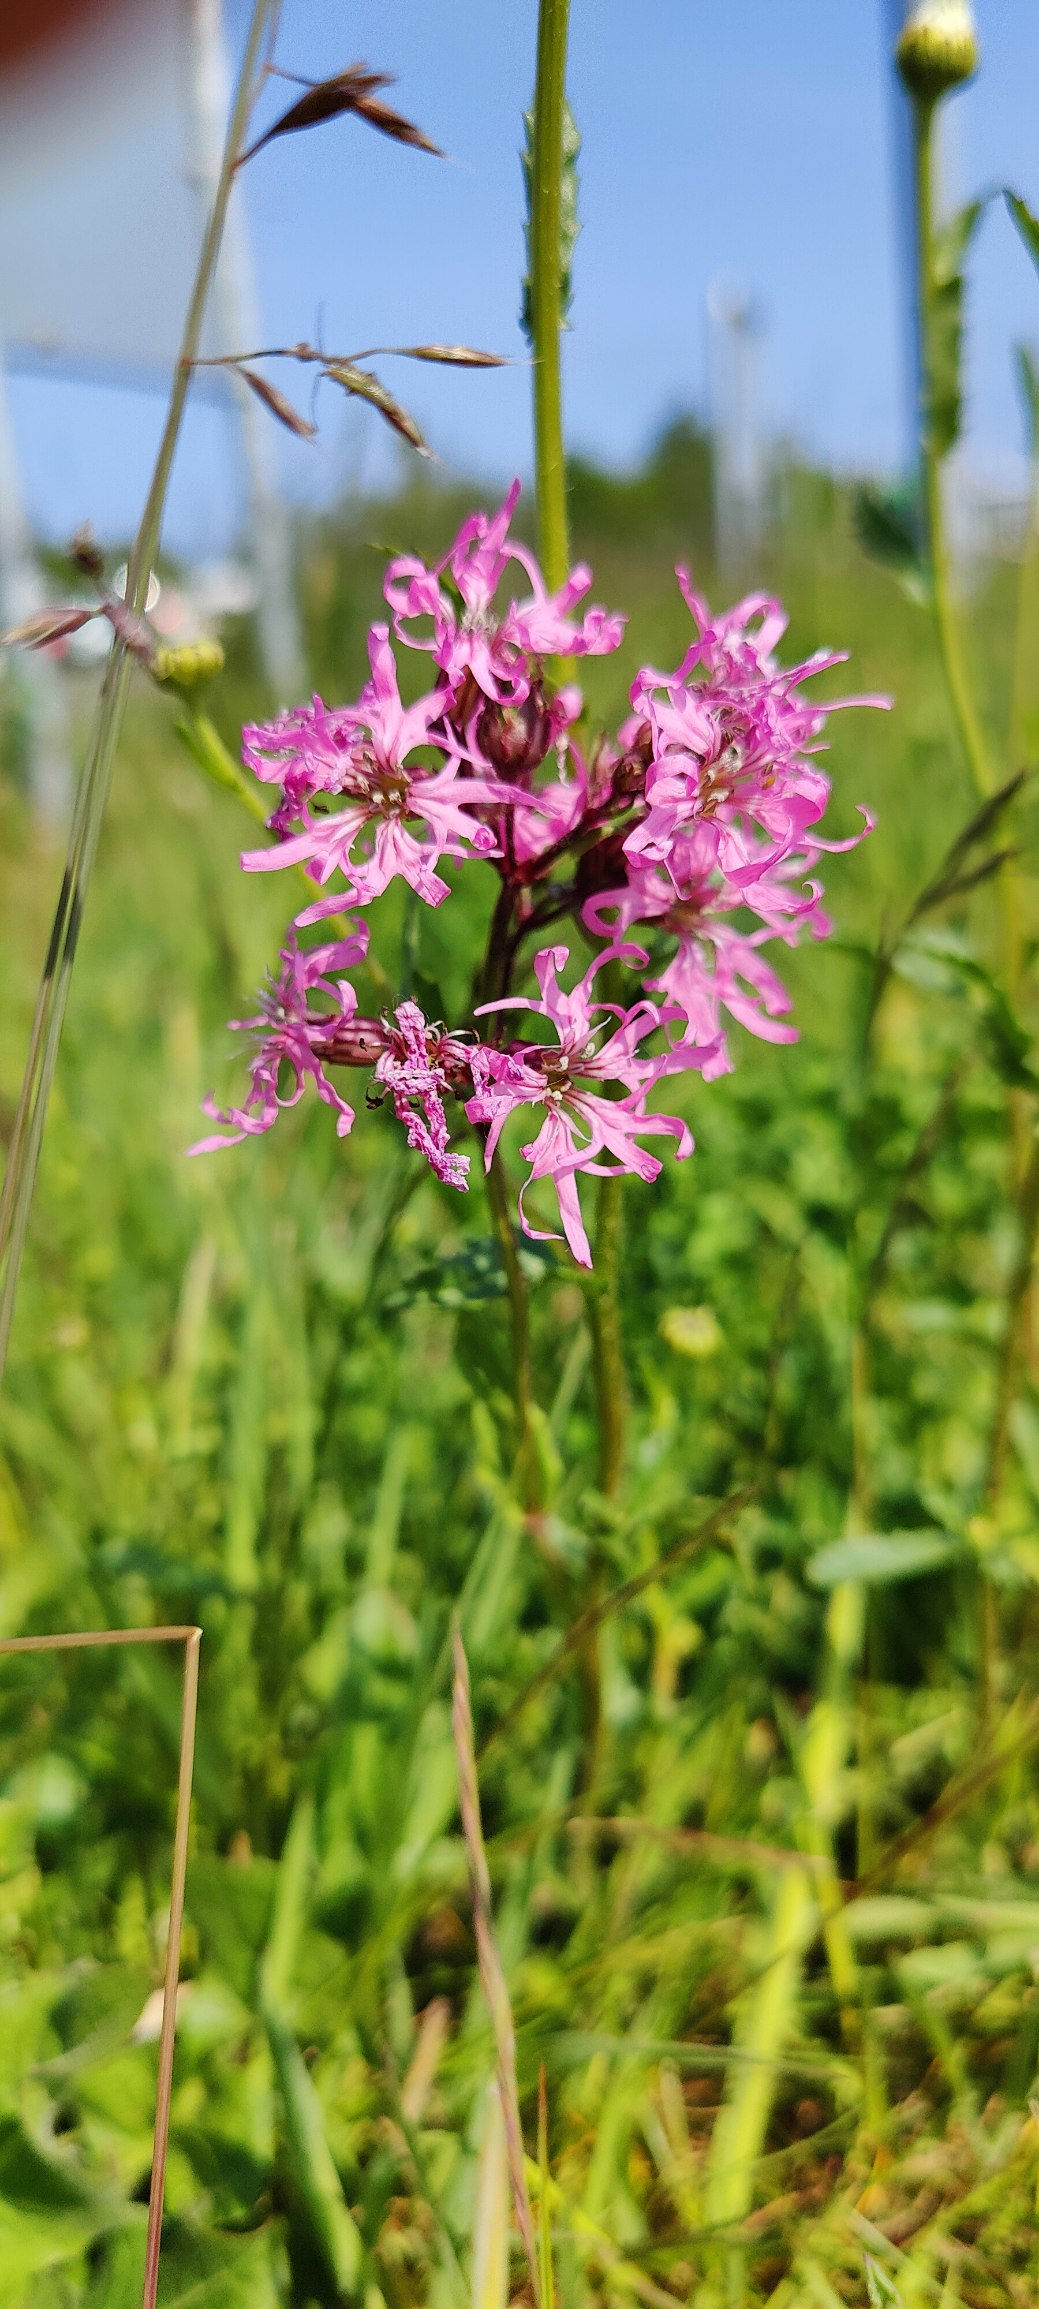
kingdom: Plantae
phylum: Tracheophyta
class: Magnoliopsida
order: Caryophyllales
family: Caryophyllaceae
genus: Silene
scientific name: Silene flos-cuculi
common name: Trævlekrone
